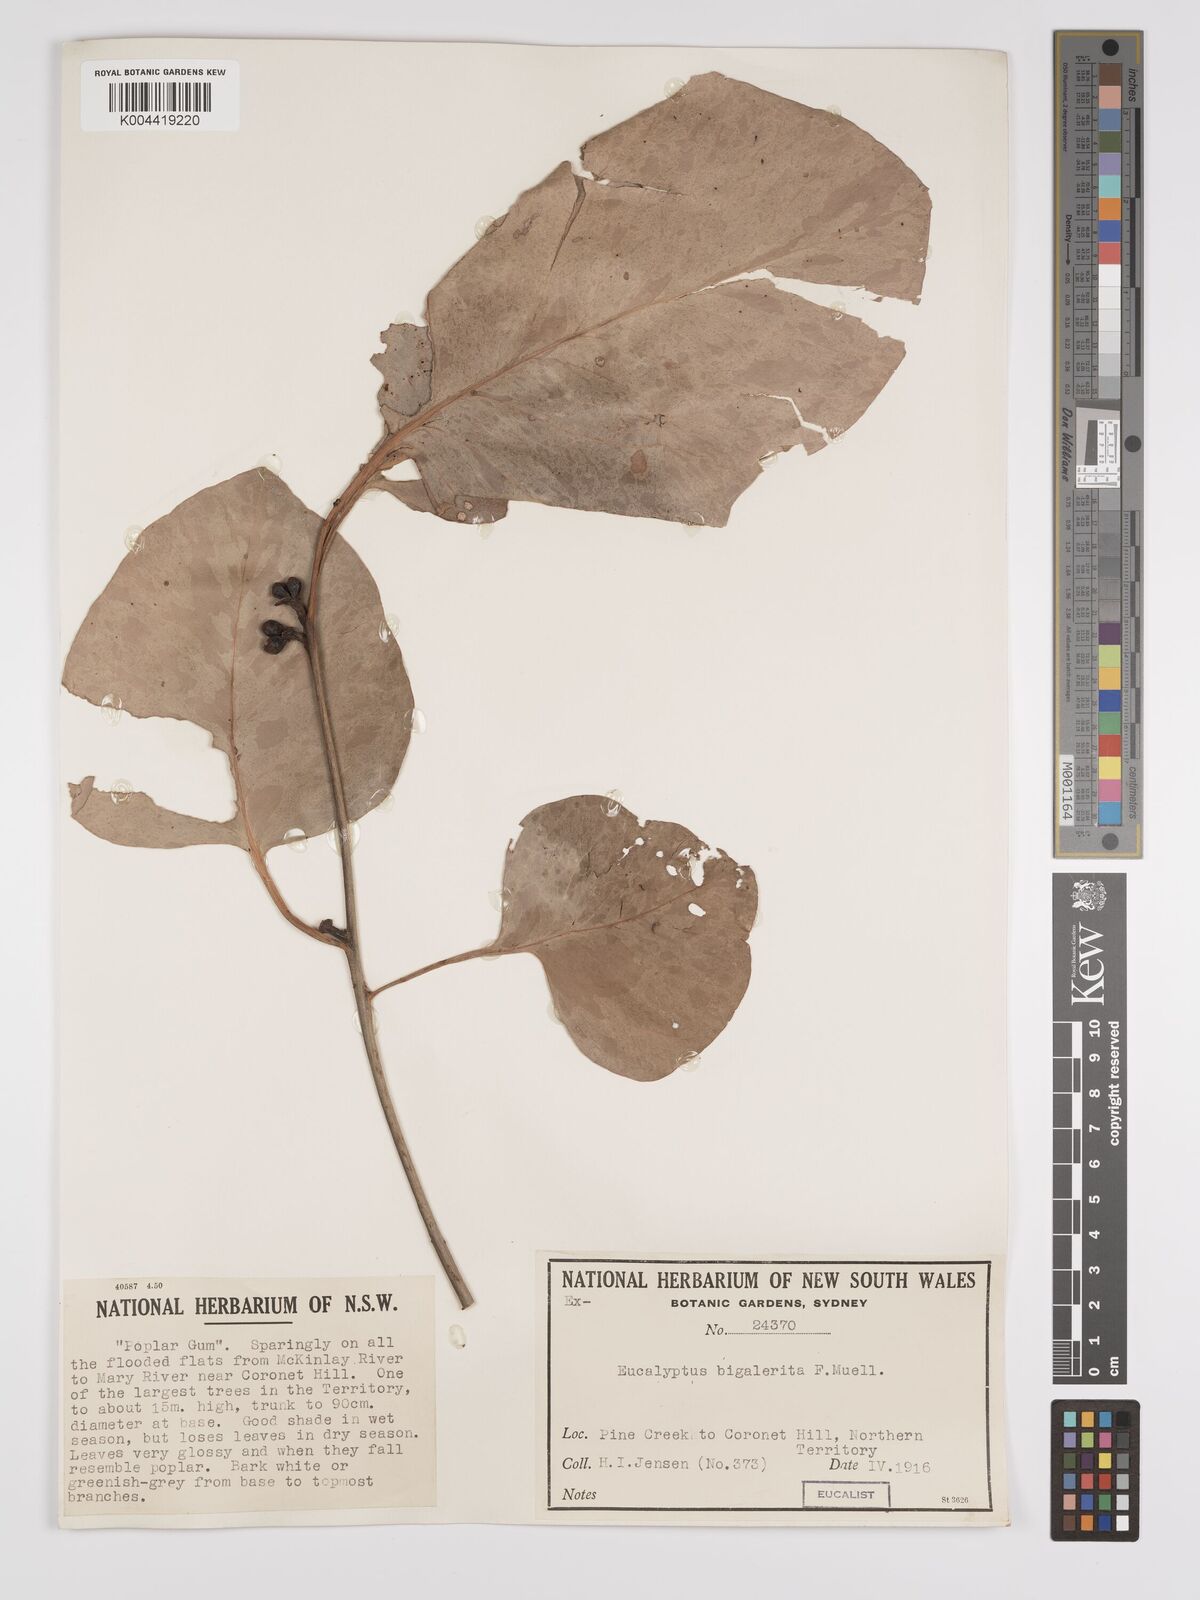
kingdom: Plantae
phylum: Tracheophyta
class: Magnoliopsida
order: Myrtales
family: Myrtaceae
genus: Eucalyptus
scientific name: Eucalyptus bigalerita
